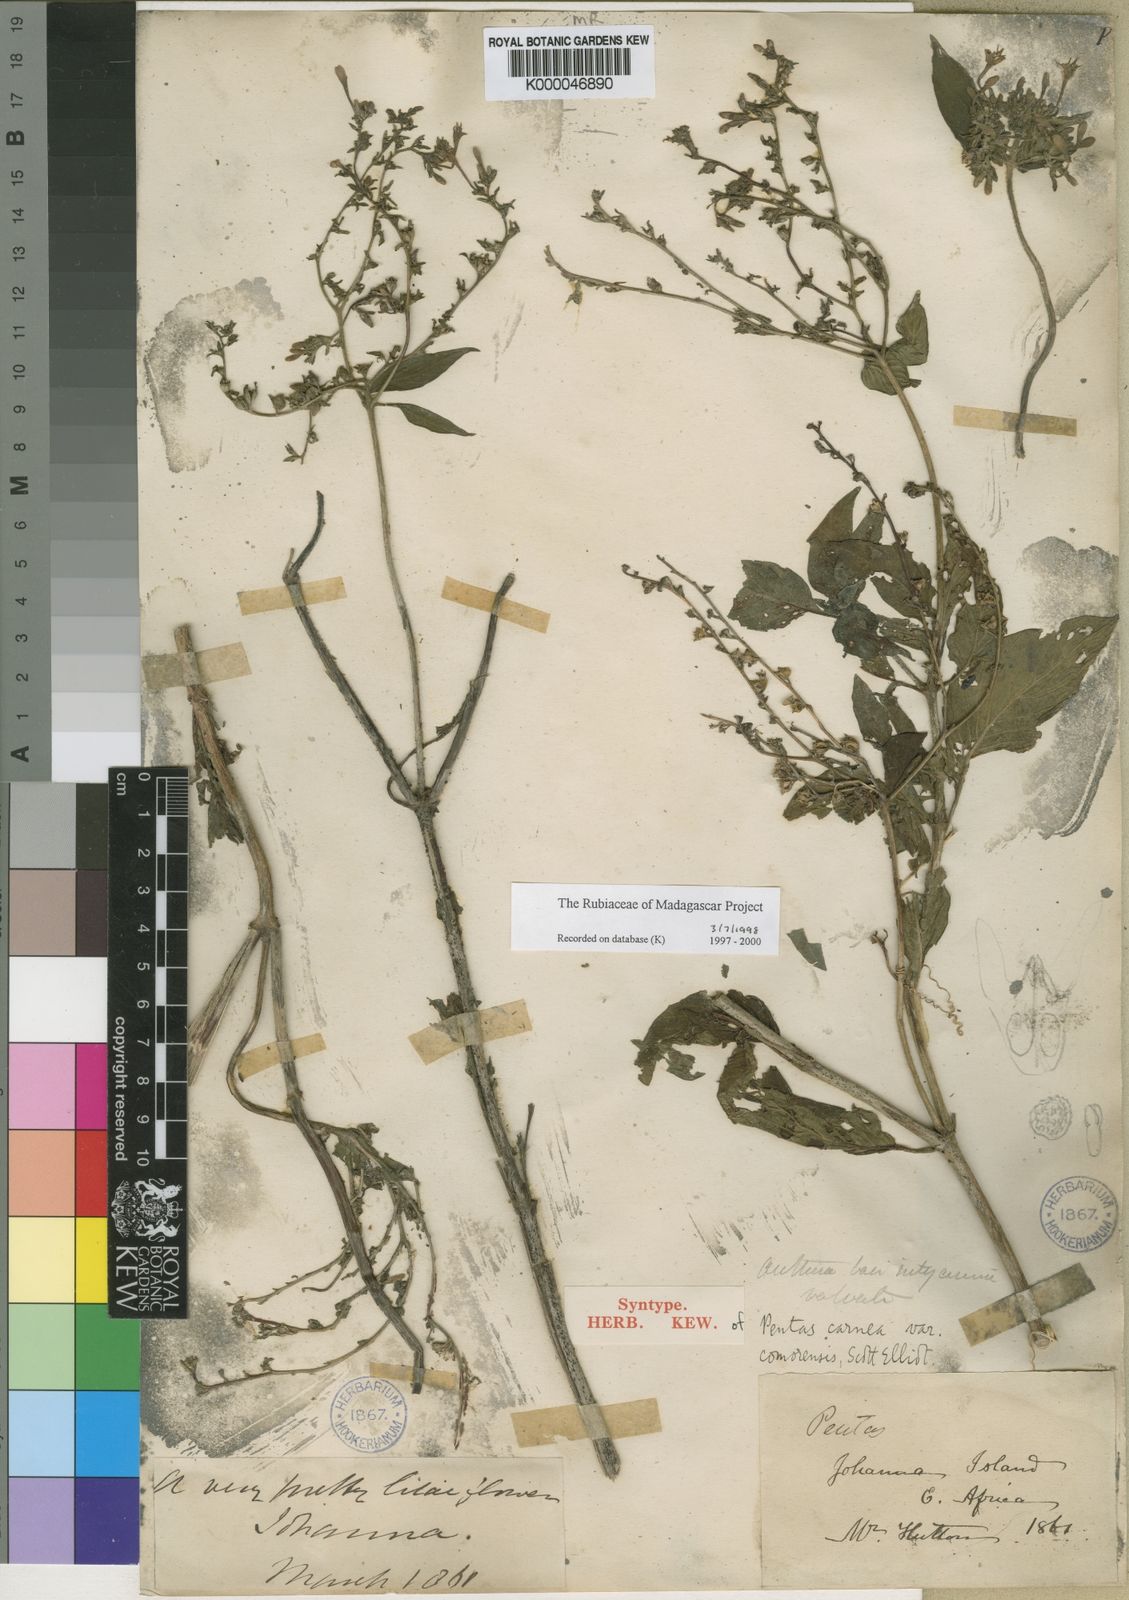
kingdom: Plantae
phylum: Tracheophyta
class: Magnoliopsida
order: Gentianales
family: Rubiaceae
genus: Pentas
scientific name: Pentas lanceolata
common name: Egyptian starcluster
